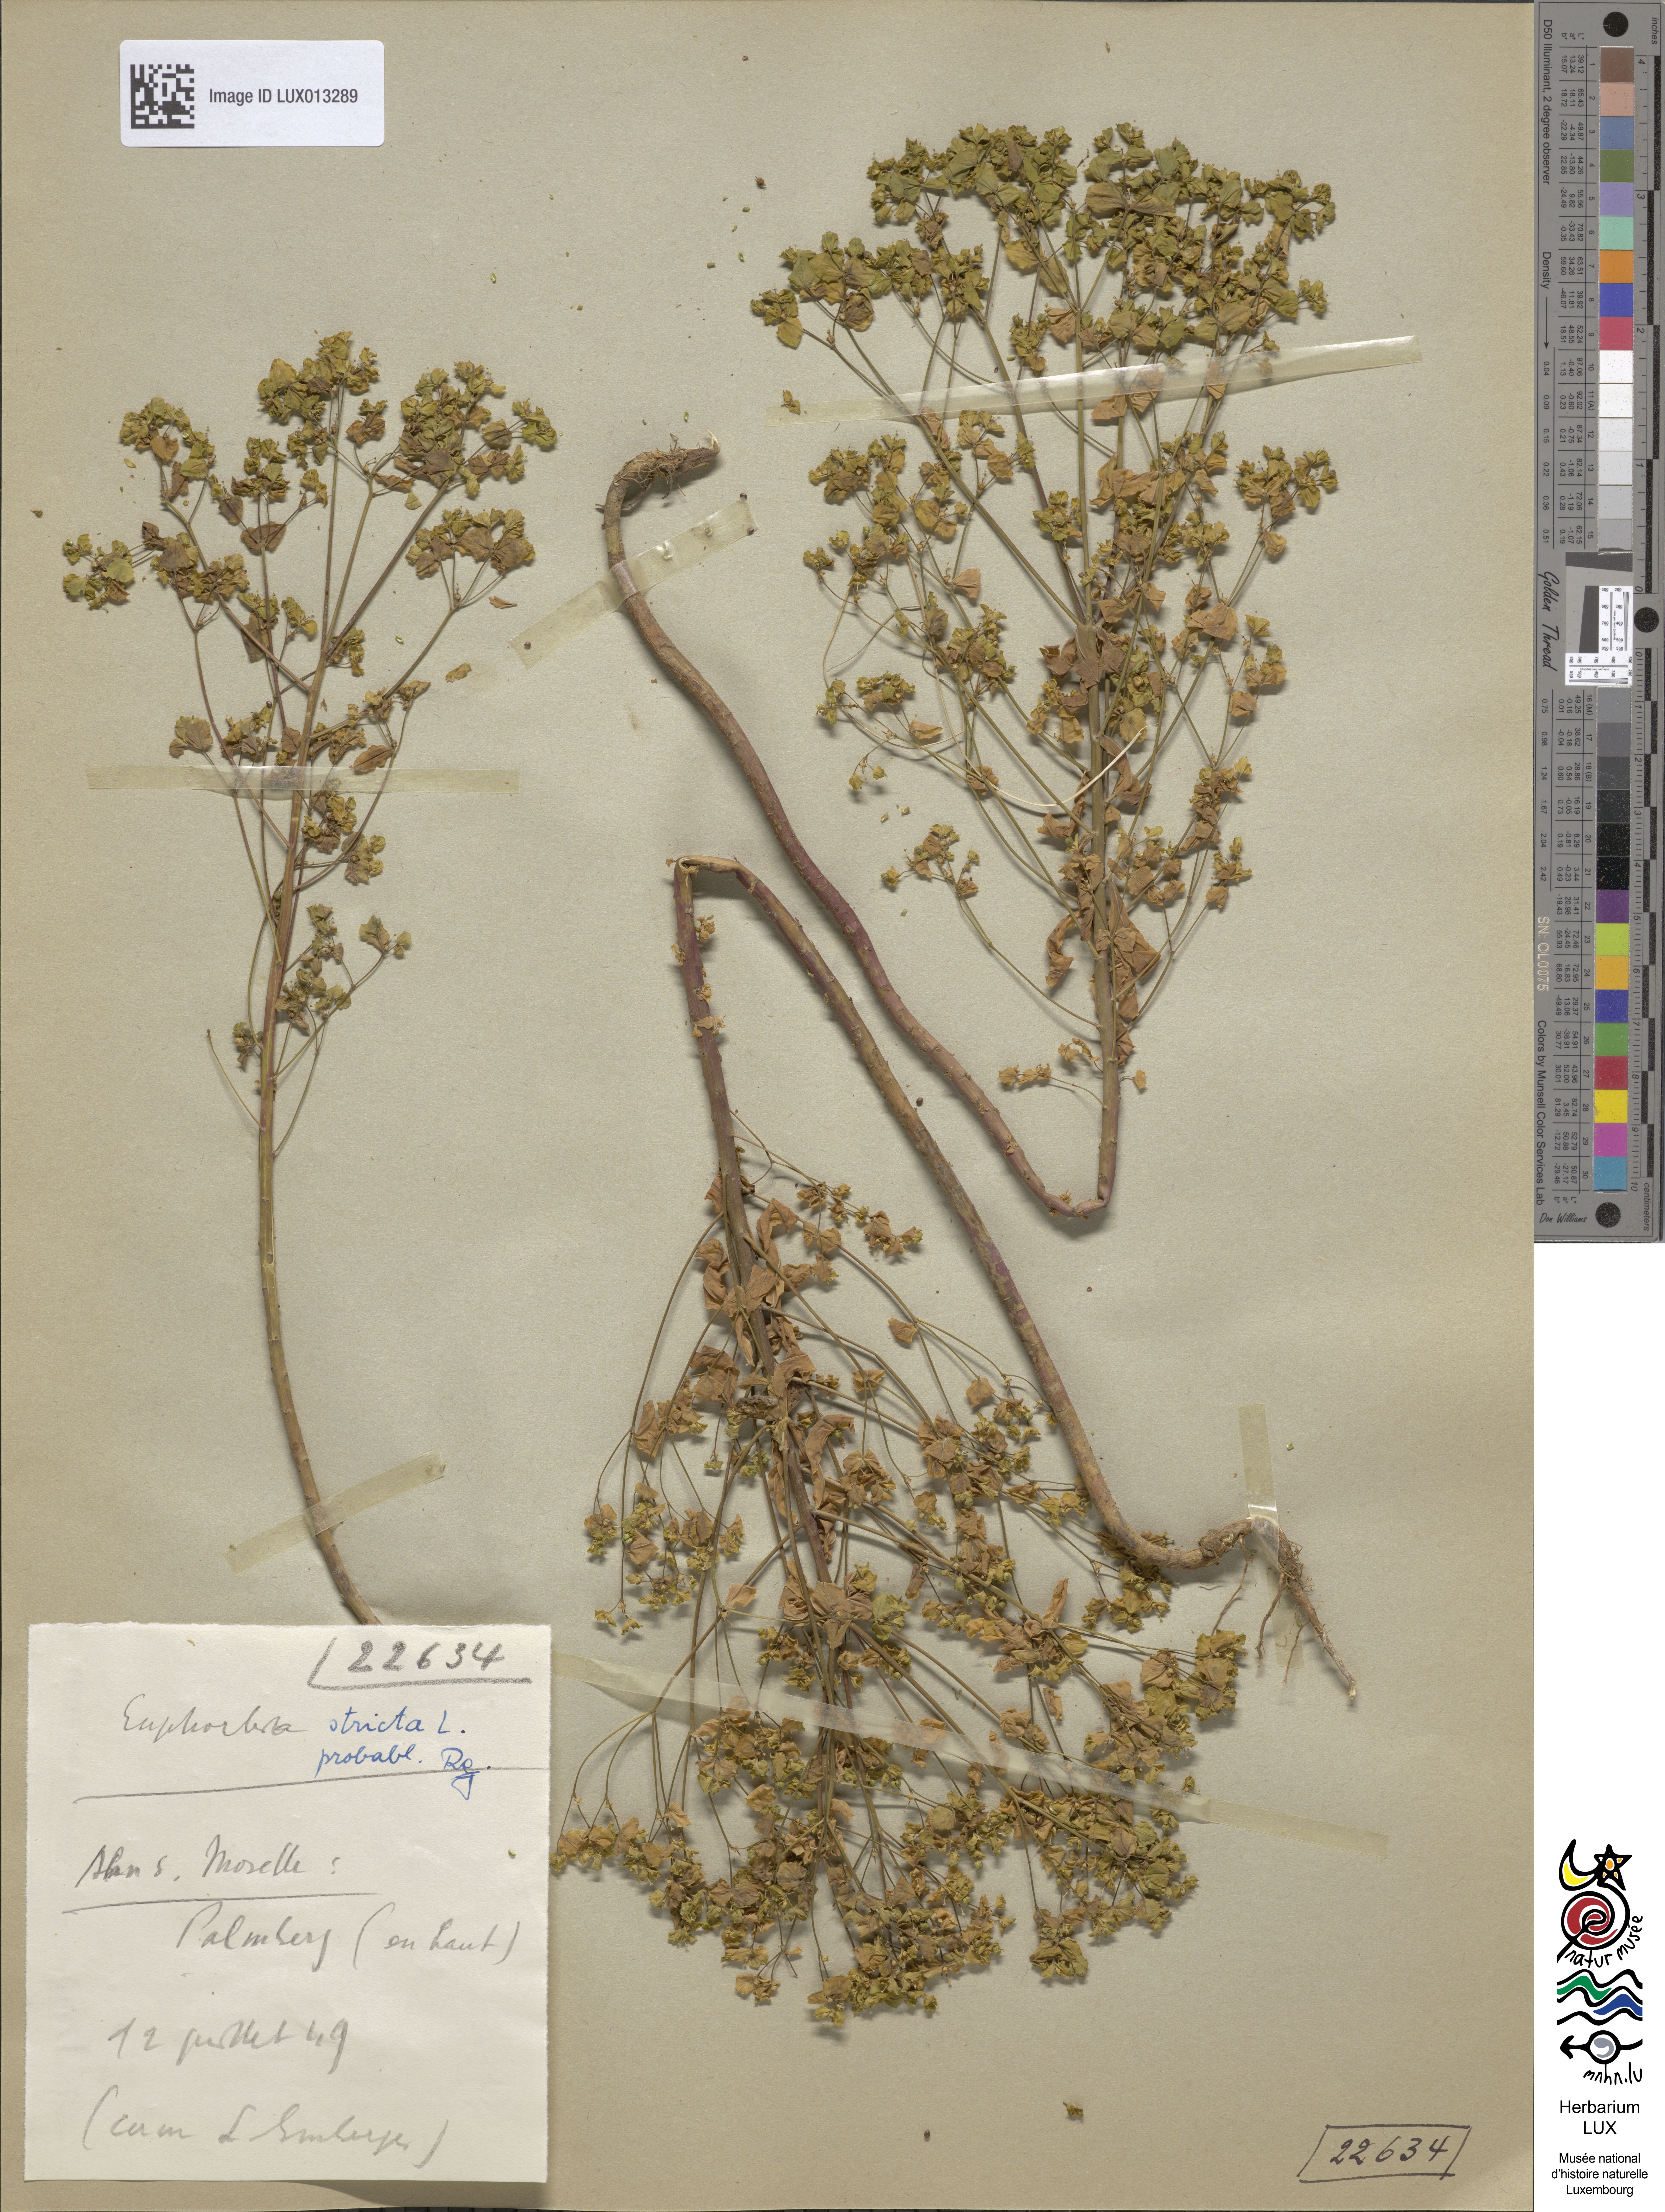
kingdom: Plantae
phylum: Tracheophyta
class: Magnoliopsida
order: Malpighiales
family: Euphorbiaceae
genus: Euphorbia
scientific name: Euphorbia stricta
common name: Upright spurge
